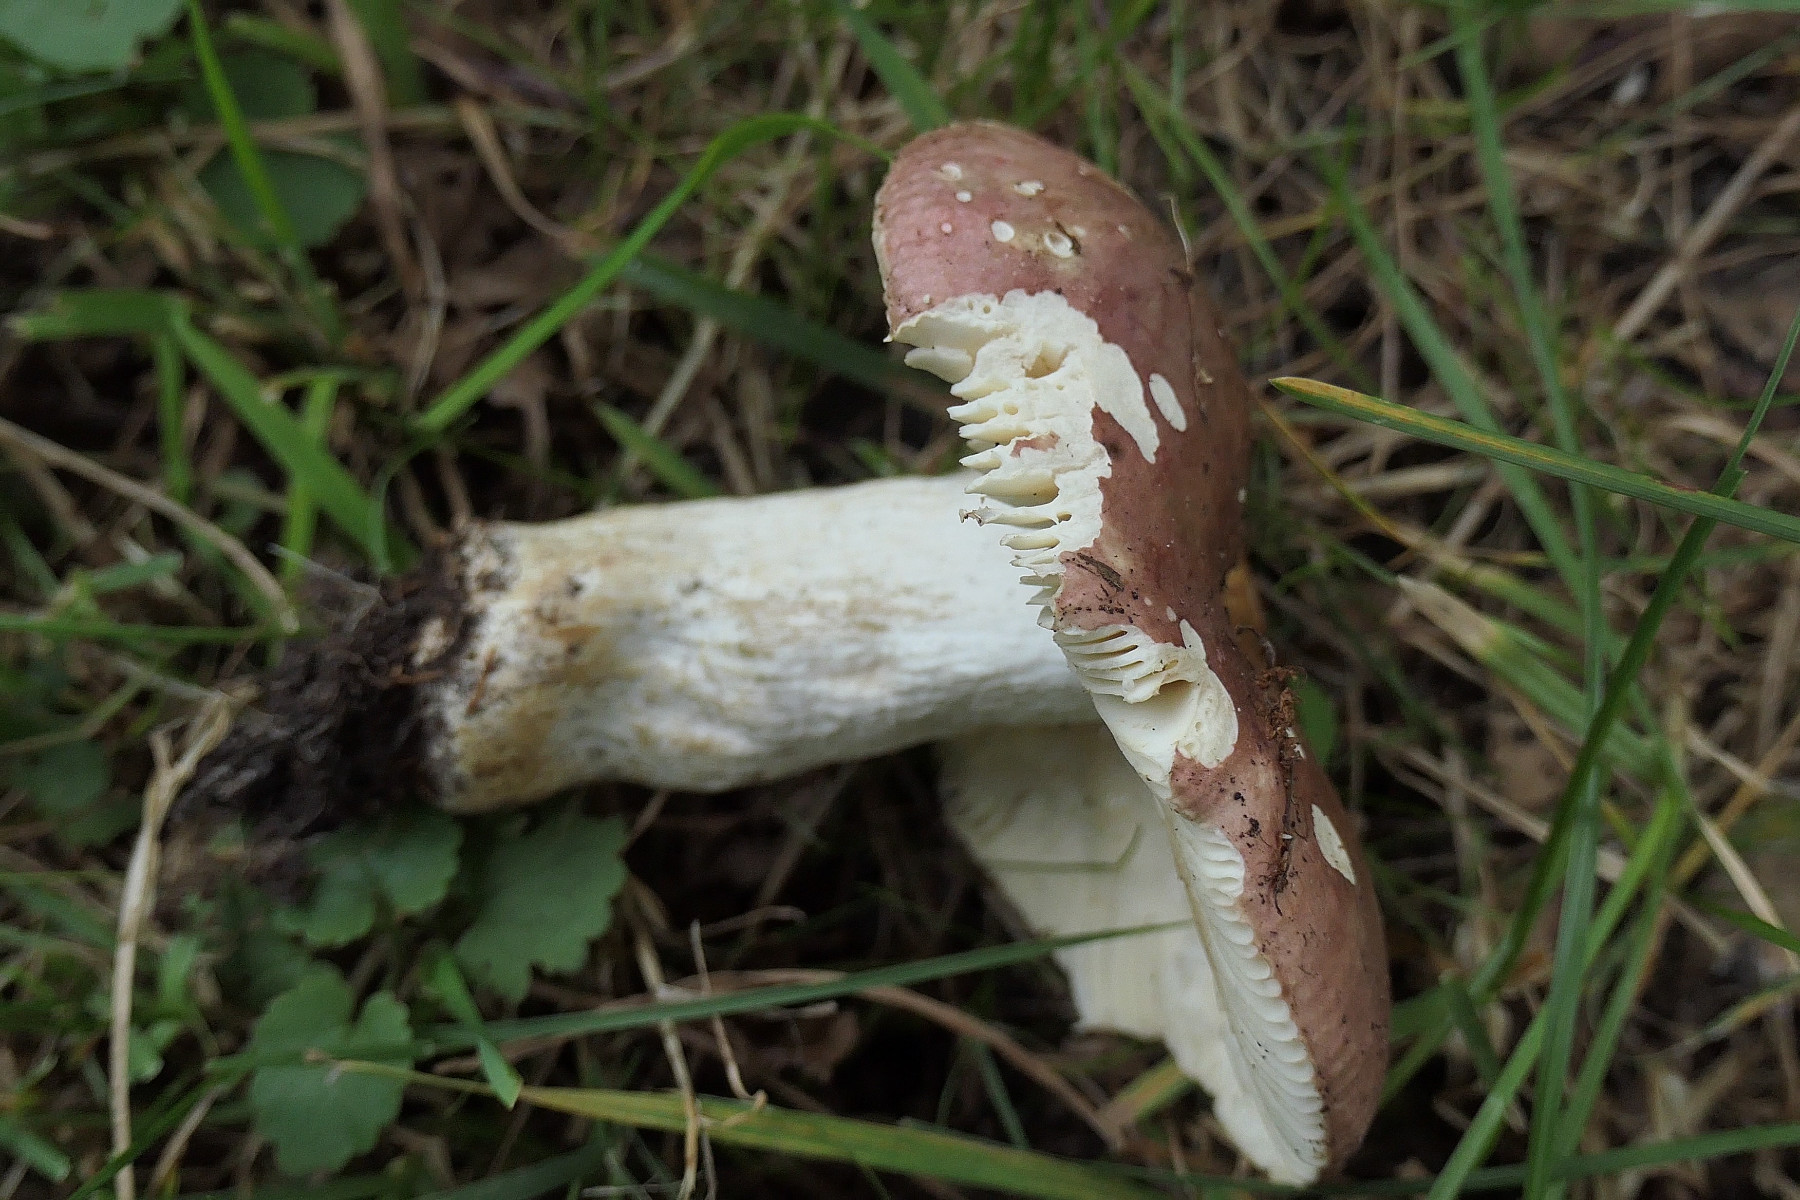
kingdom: Fungi
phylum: Basidiomycota
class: Agaricomycetes
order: Russulales
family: Russulaceae
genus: Russula
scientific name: Russula graveolens
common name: bugtet skørhat
